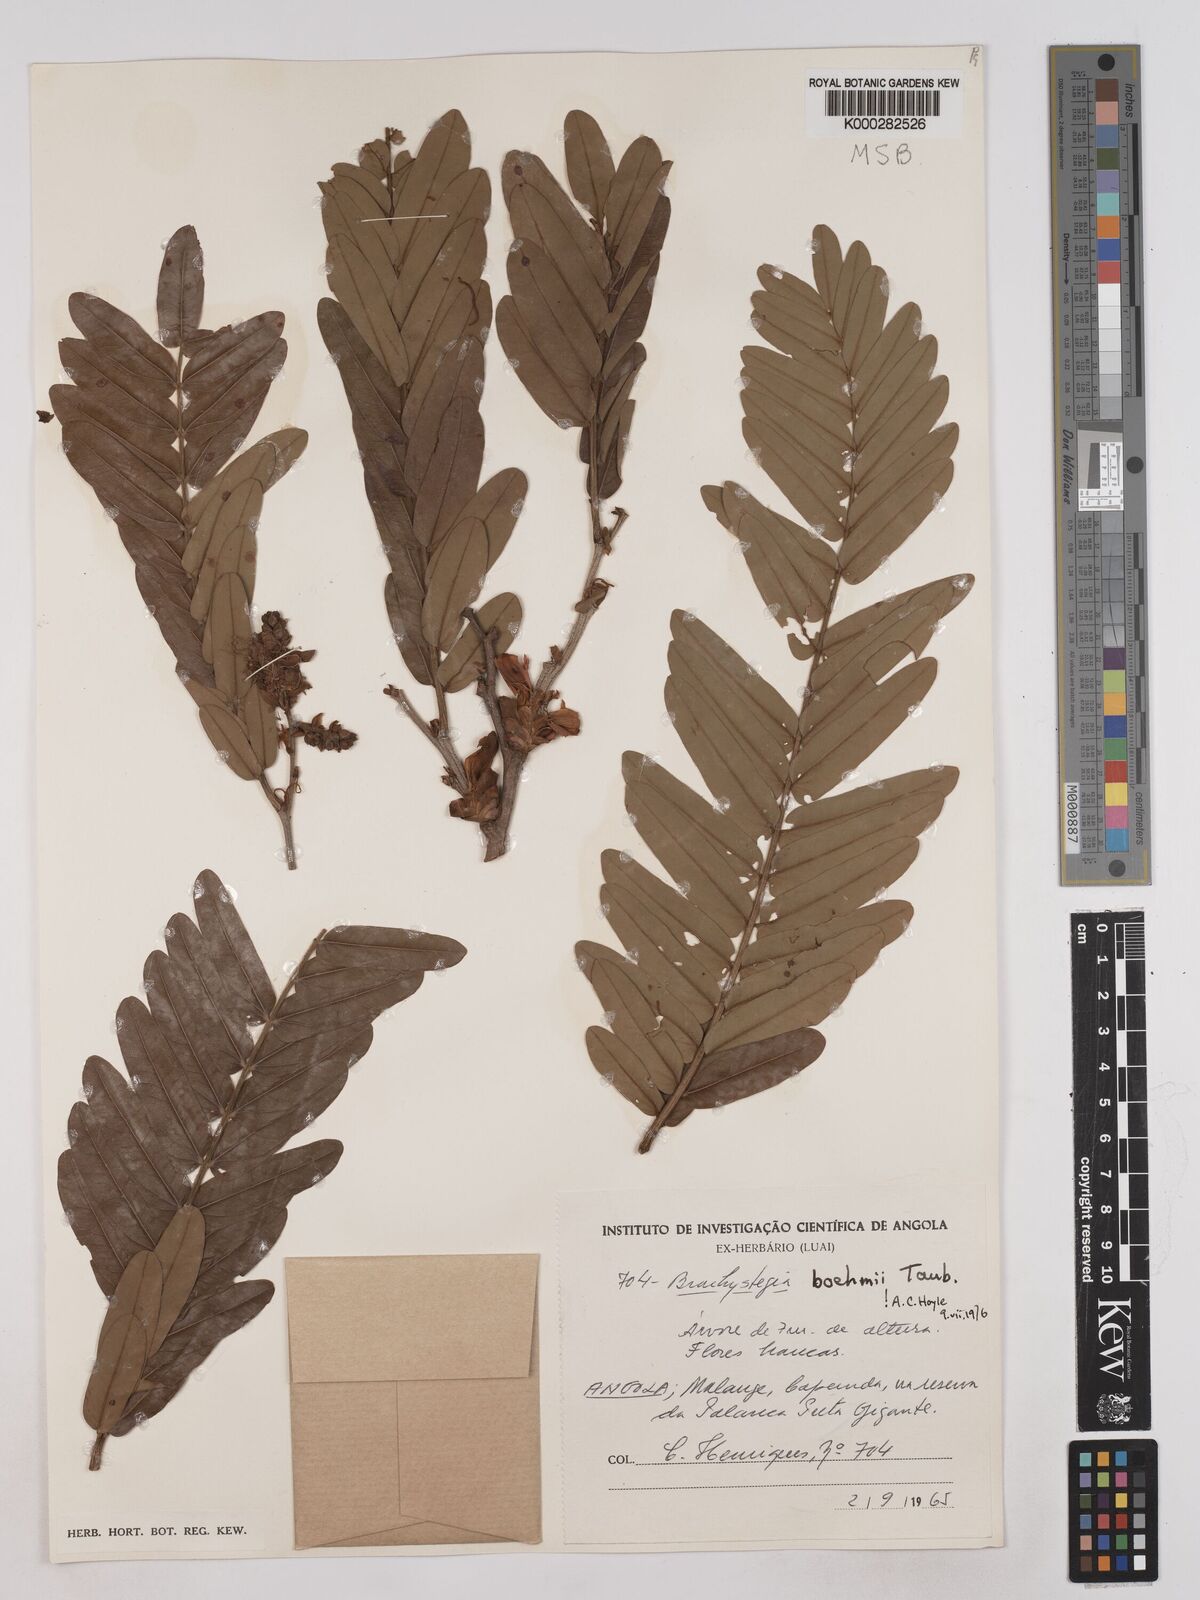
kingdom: Plantae
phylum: Tracheophyta
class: Magnoliopsida
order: Fabales
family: Fabaceae
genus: Brachystegia
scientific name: Brachystegia boehmii
